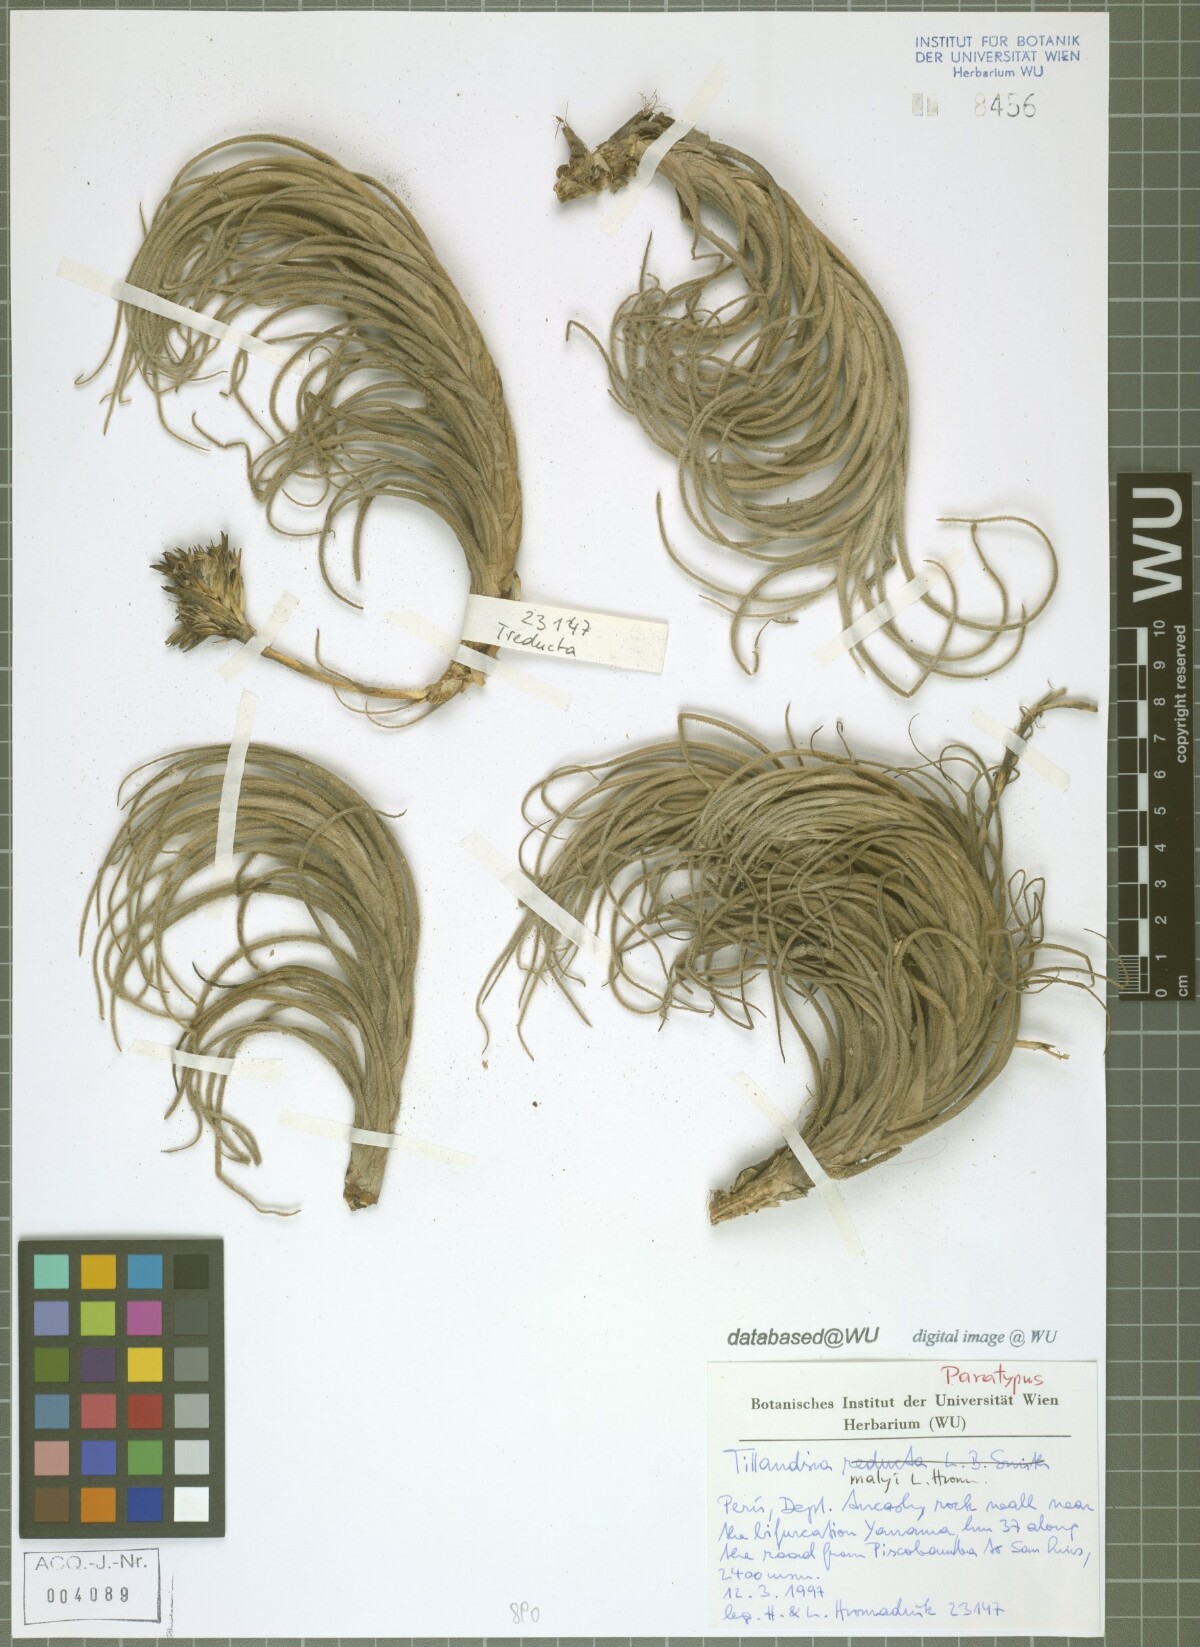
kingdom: Plantae
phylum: Tracheophyta
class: Liliopsida
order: Poales
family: Bromeliaceae
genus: Tillandsia
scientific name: Tillandsia malyi
